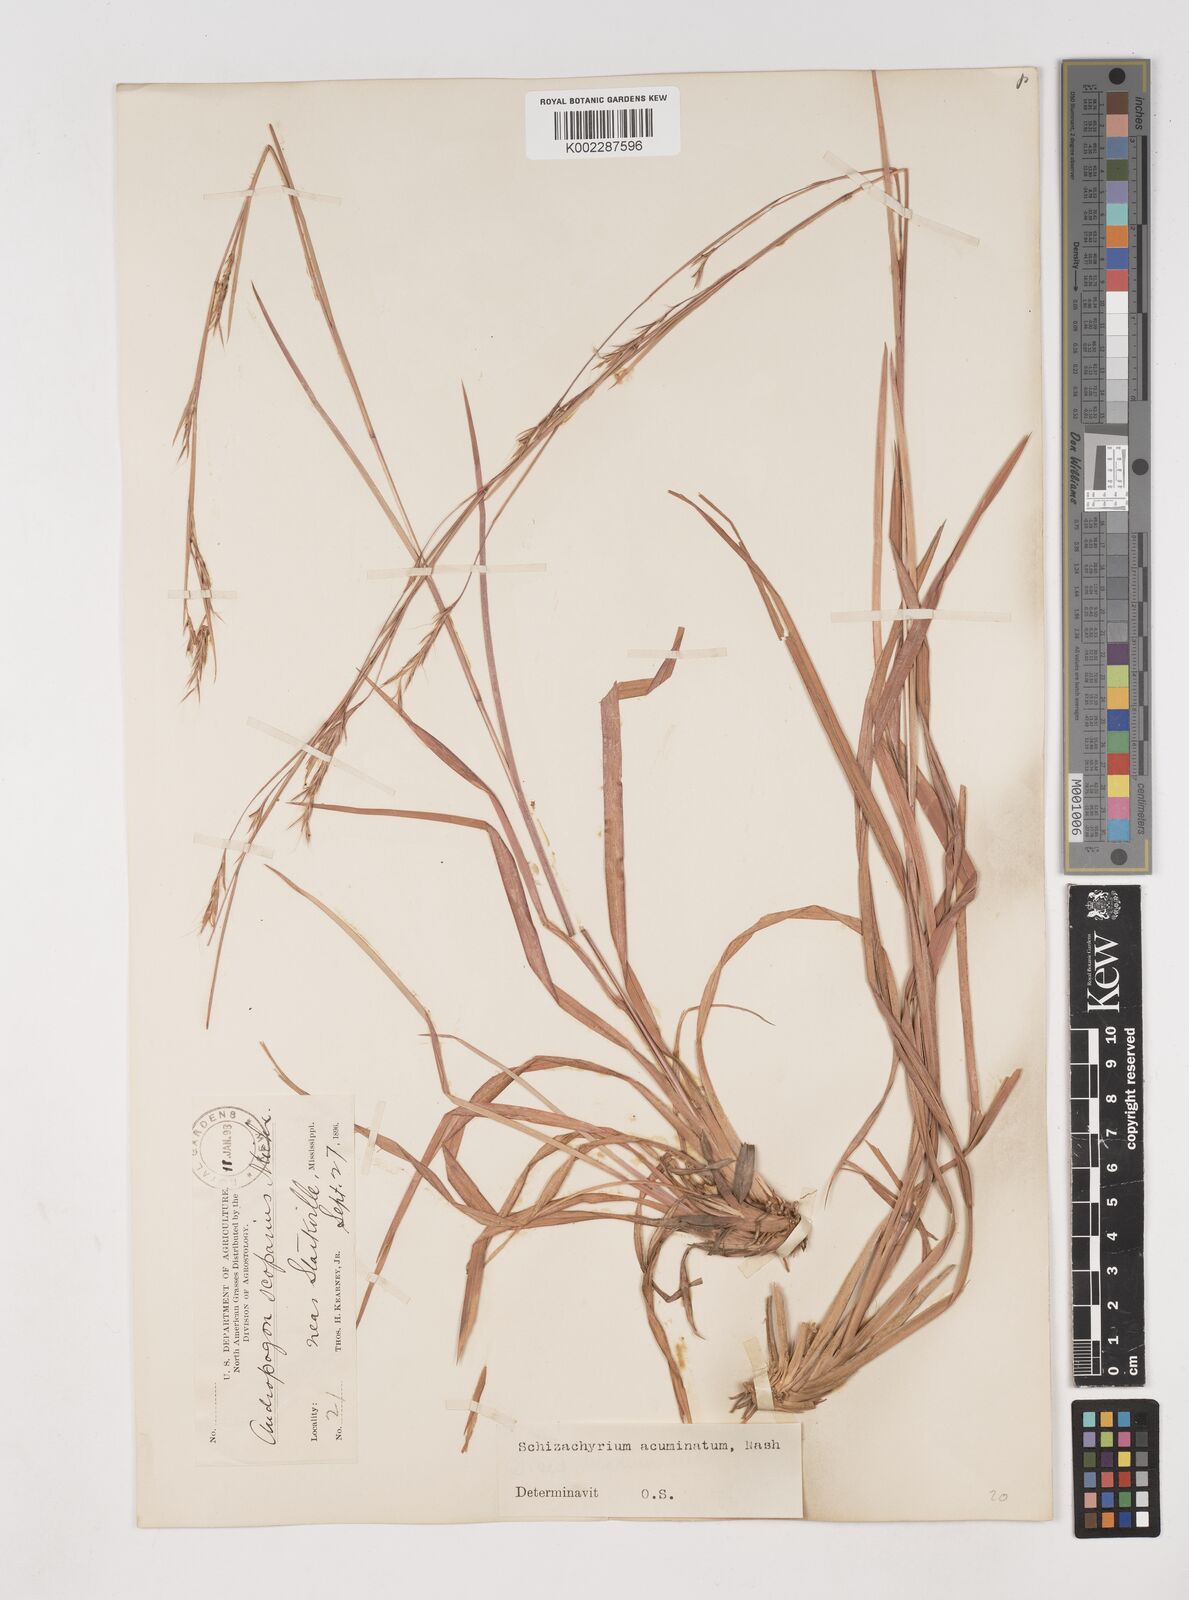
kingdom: Plantae
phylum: Tracheophyta
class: Liliopsida
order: Poales
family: Poaceae
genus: Schizachyrium
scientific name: Schizachyrium scoparium
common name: Little bluestem
